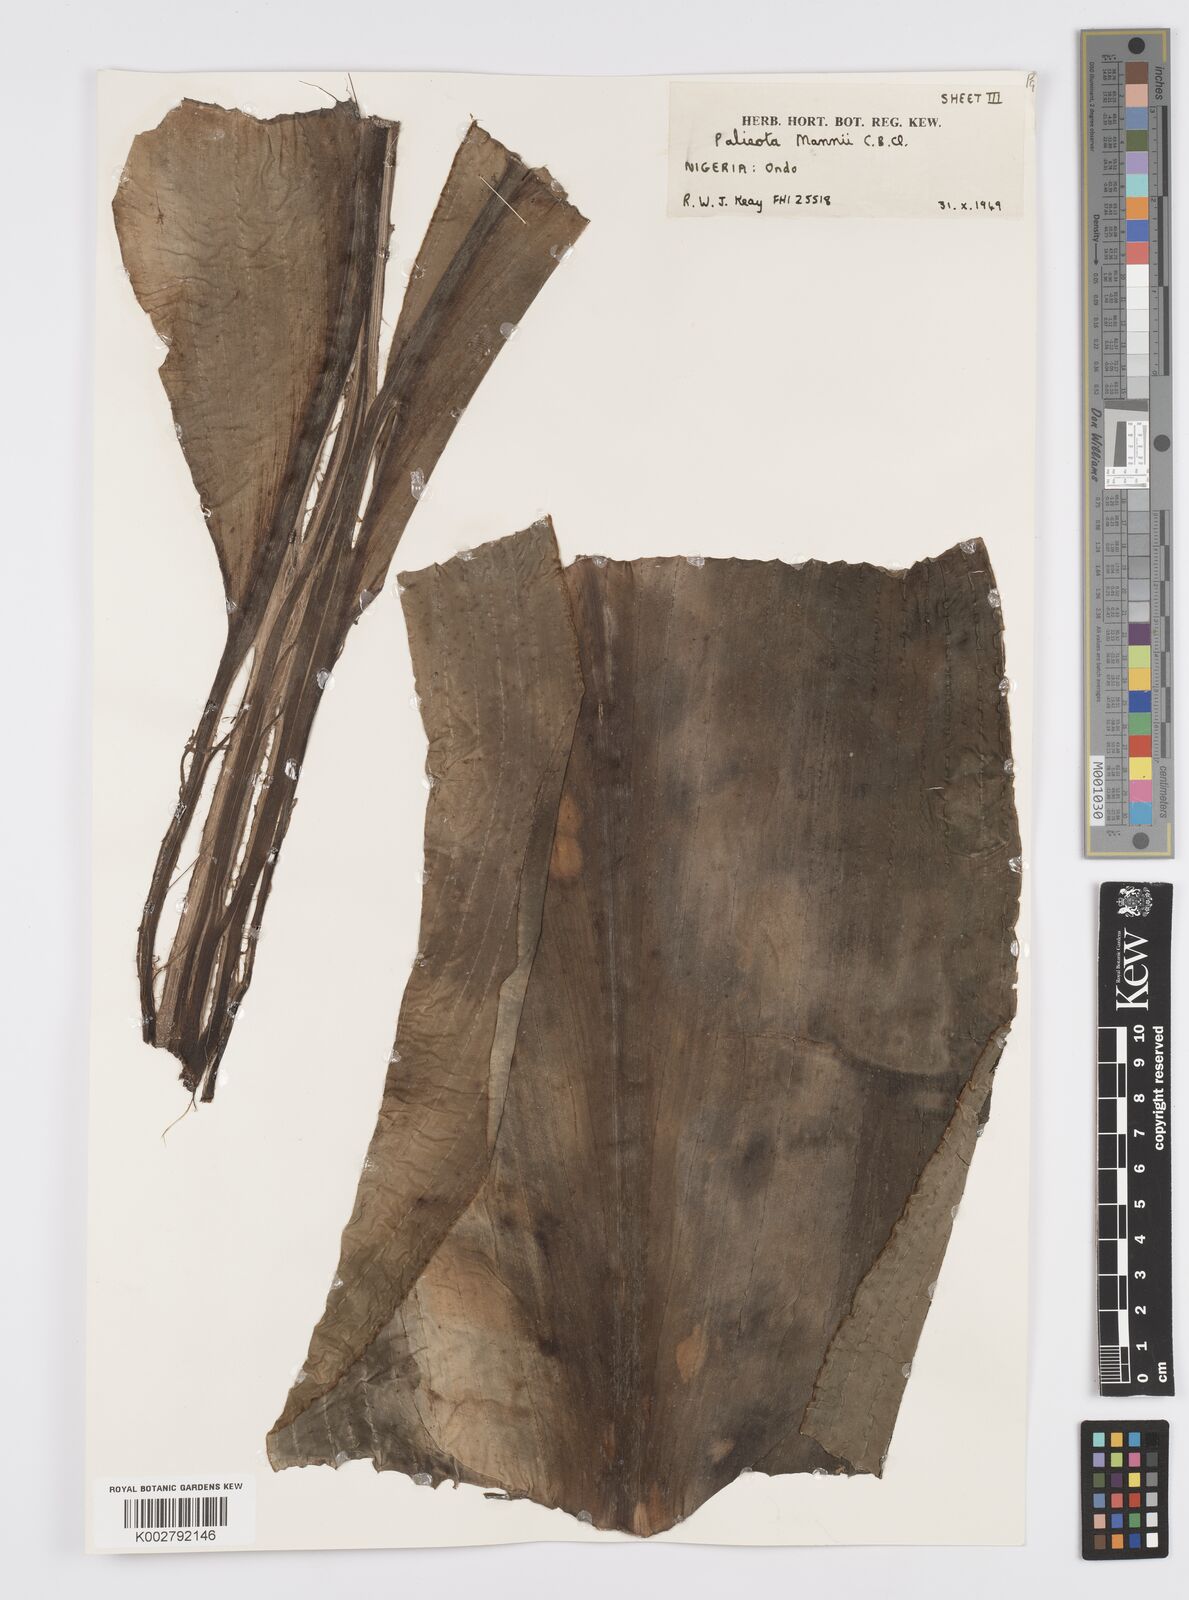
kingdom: Plantae
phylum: Tracheophyta
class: Liliopsida
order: Commelinales
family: Commelinaceae
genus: Palisota
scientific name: Palisota mannii
